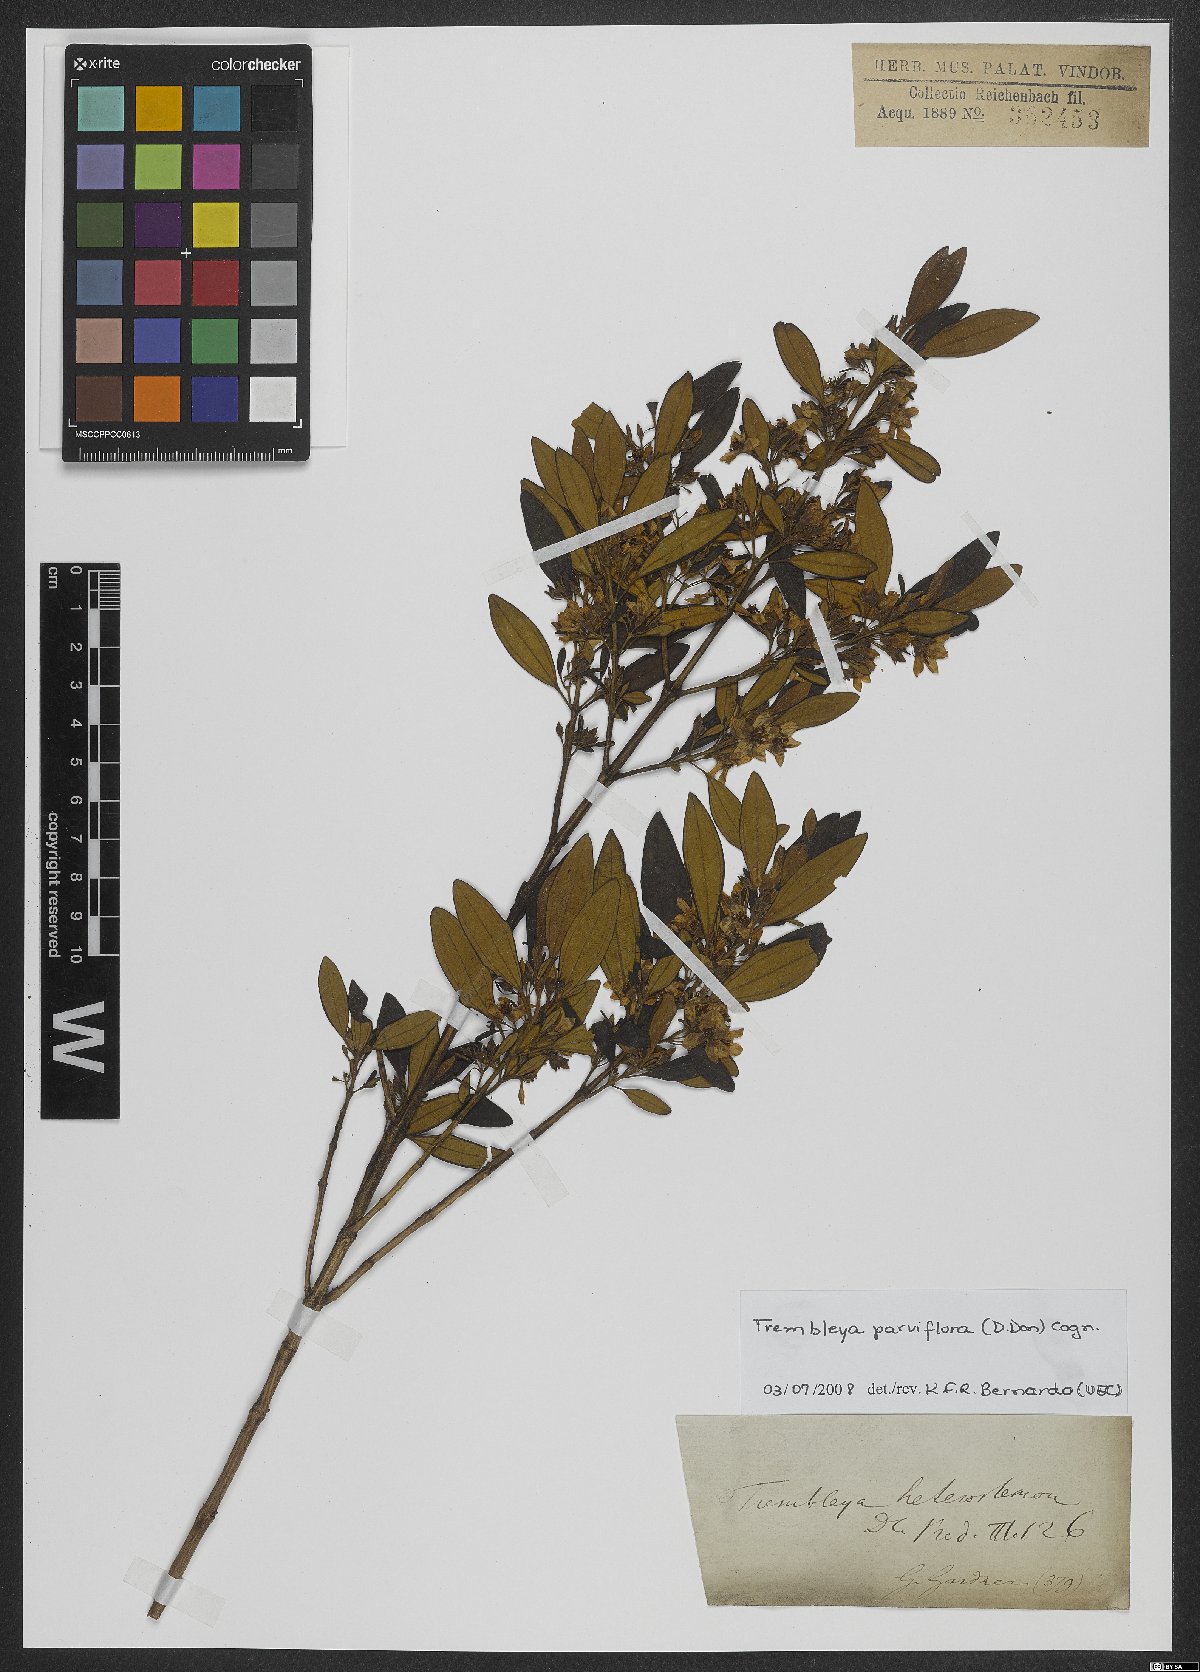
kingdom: Plantae
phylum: Tracheophyta
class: Magnoliopsida
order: Myrtales
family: Melastomataceae
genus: Microlicia
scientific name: Microlicia parviflora
